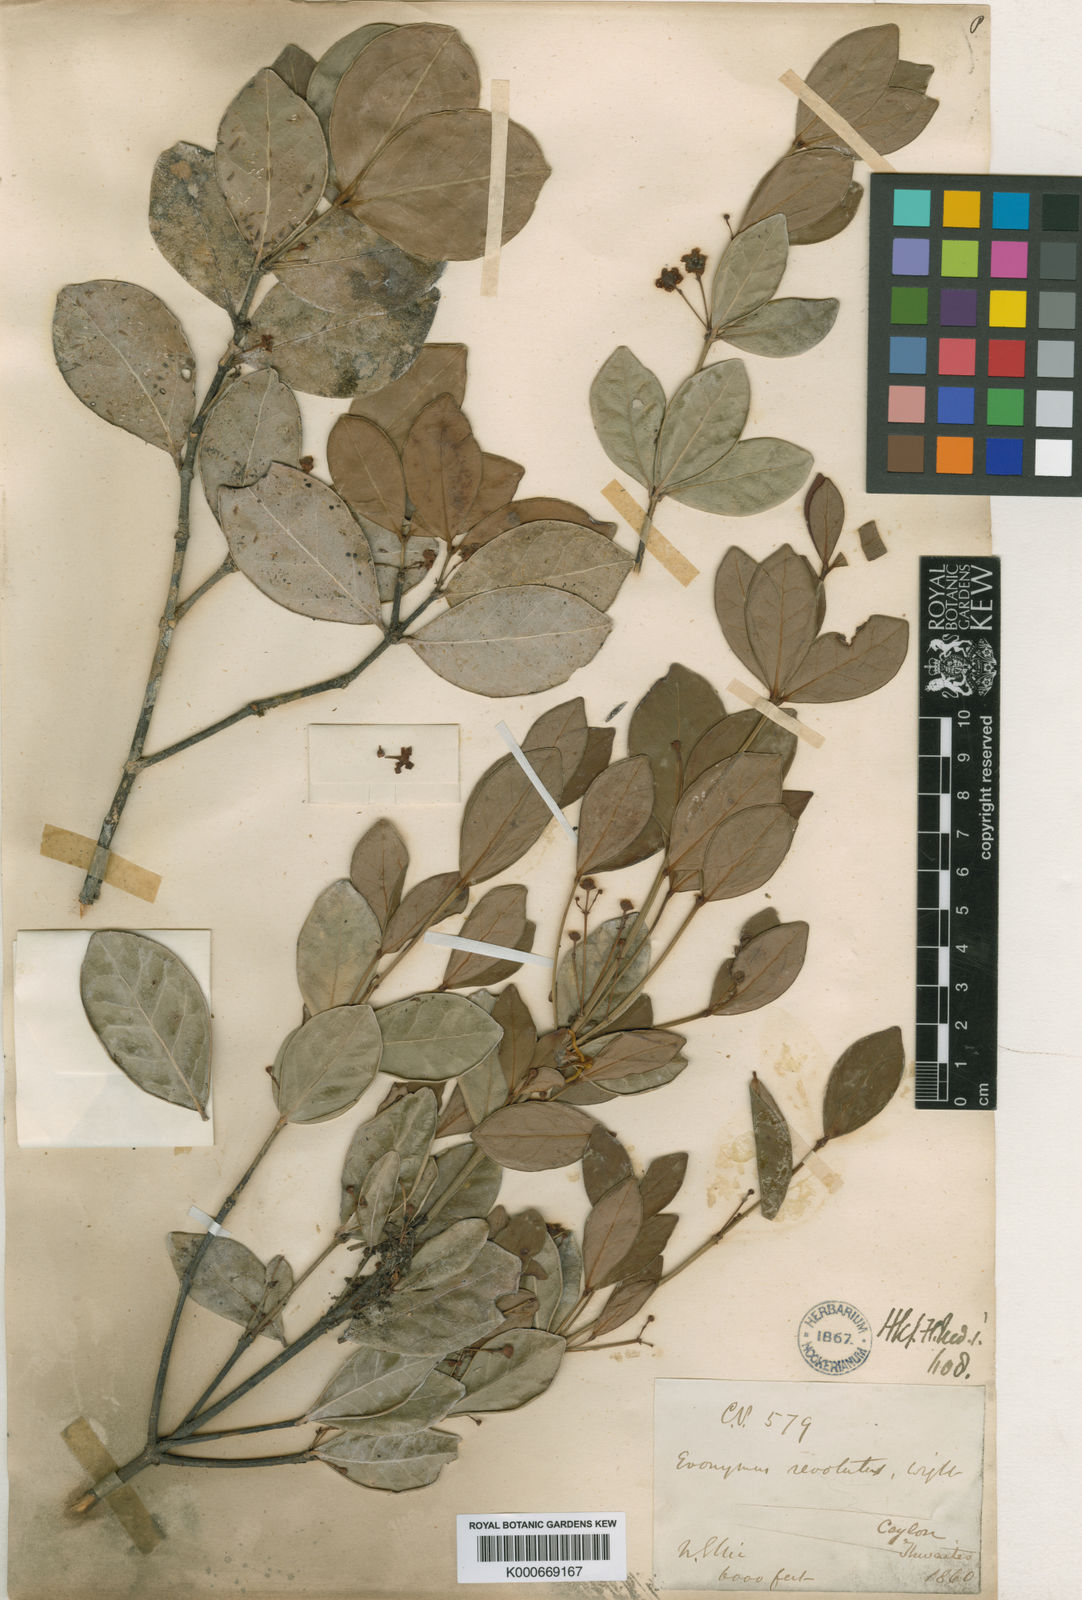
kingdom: Plantae
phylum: Tracheophyta
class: Magnoliopsida
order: Celastrales
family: Celastraceae
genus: Euonymus
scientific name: Euonymus revolutus
